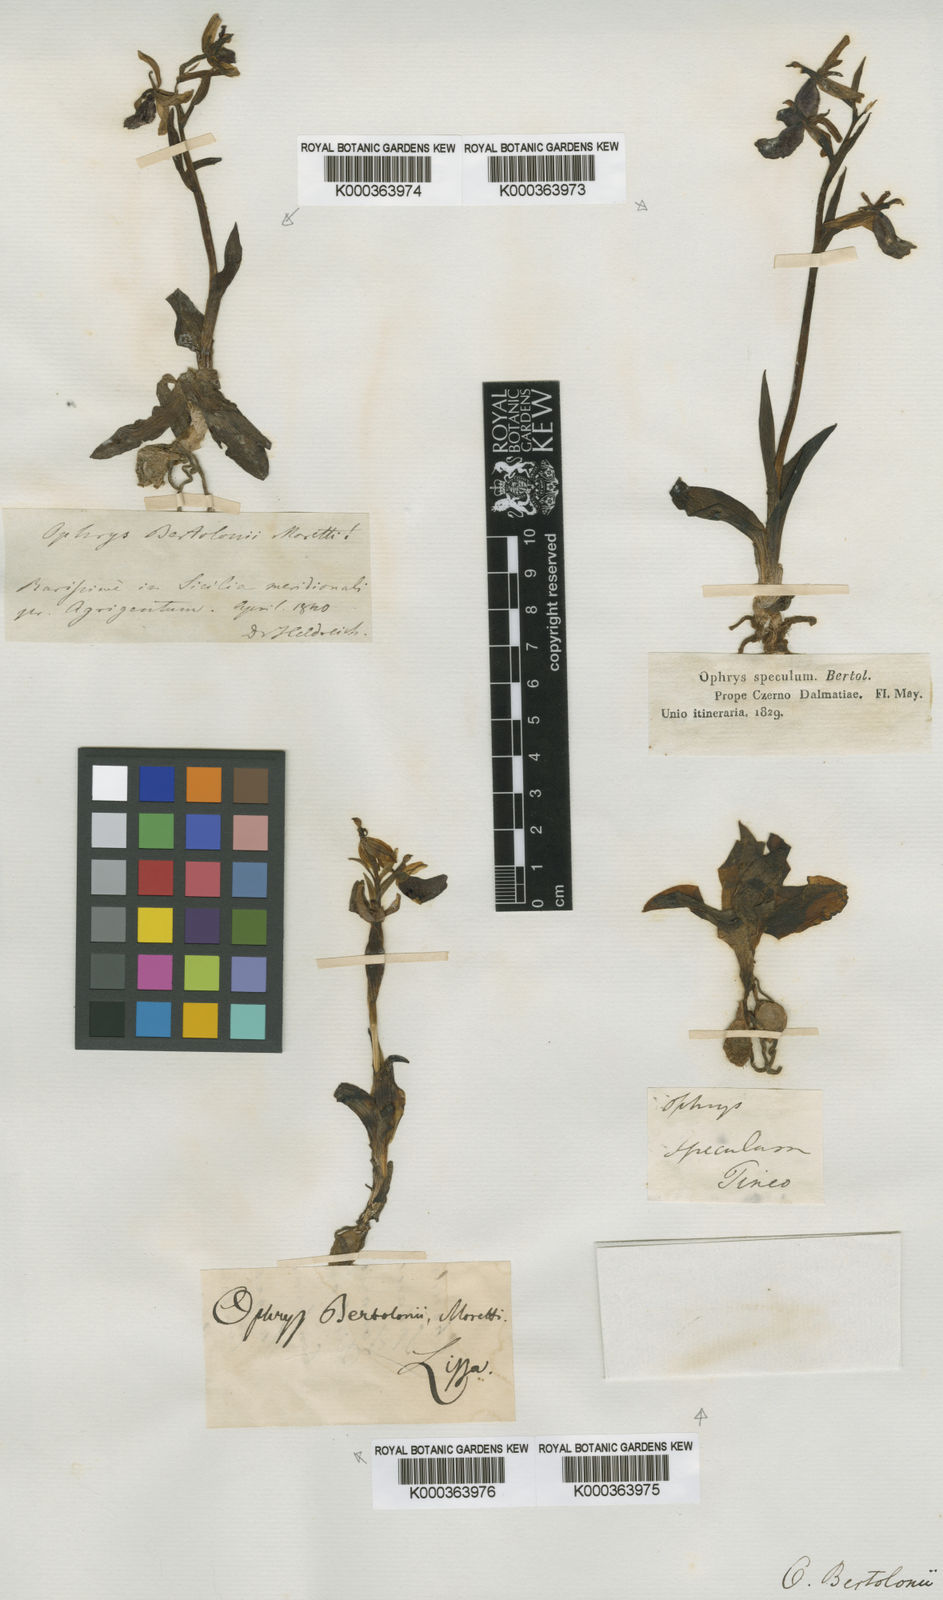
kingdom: Plantae
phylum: Tracheophyta
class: Liliopsida
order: Asparagales
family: Orchidaceae
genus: Ophrys
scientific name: Ophrys bertolonii
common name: Bertoloni's bee orchid
